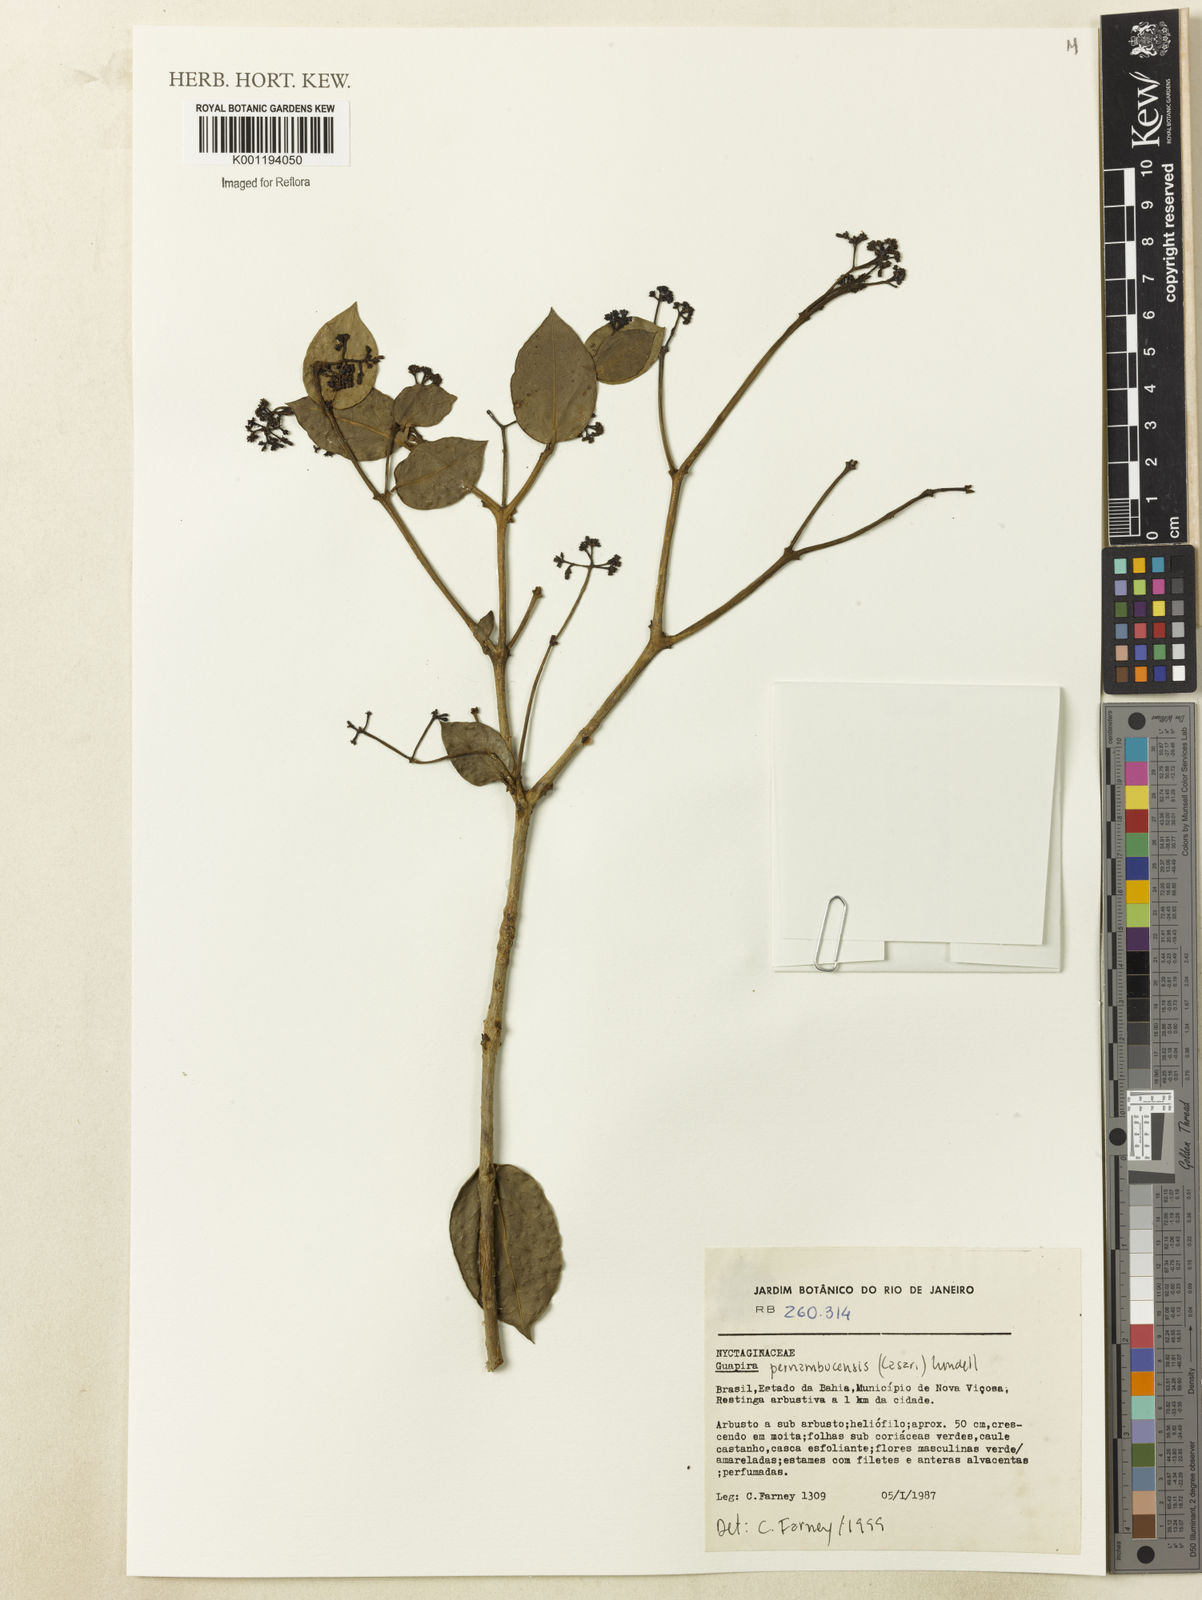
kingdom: Plantae
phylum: Tracheophyta
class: Magnoliopsida
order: Caryophyllales
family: Nyctaginaceae
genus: Guapira
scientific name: Guapira pernambucensis
